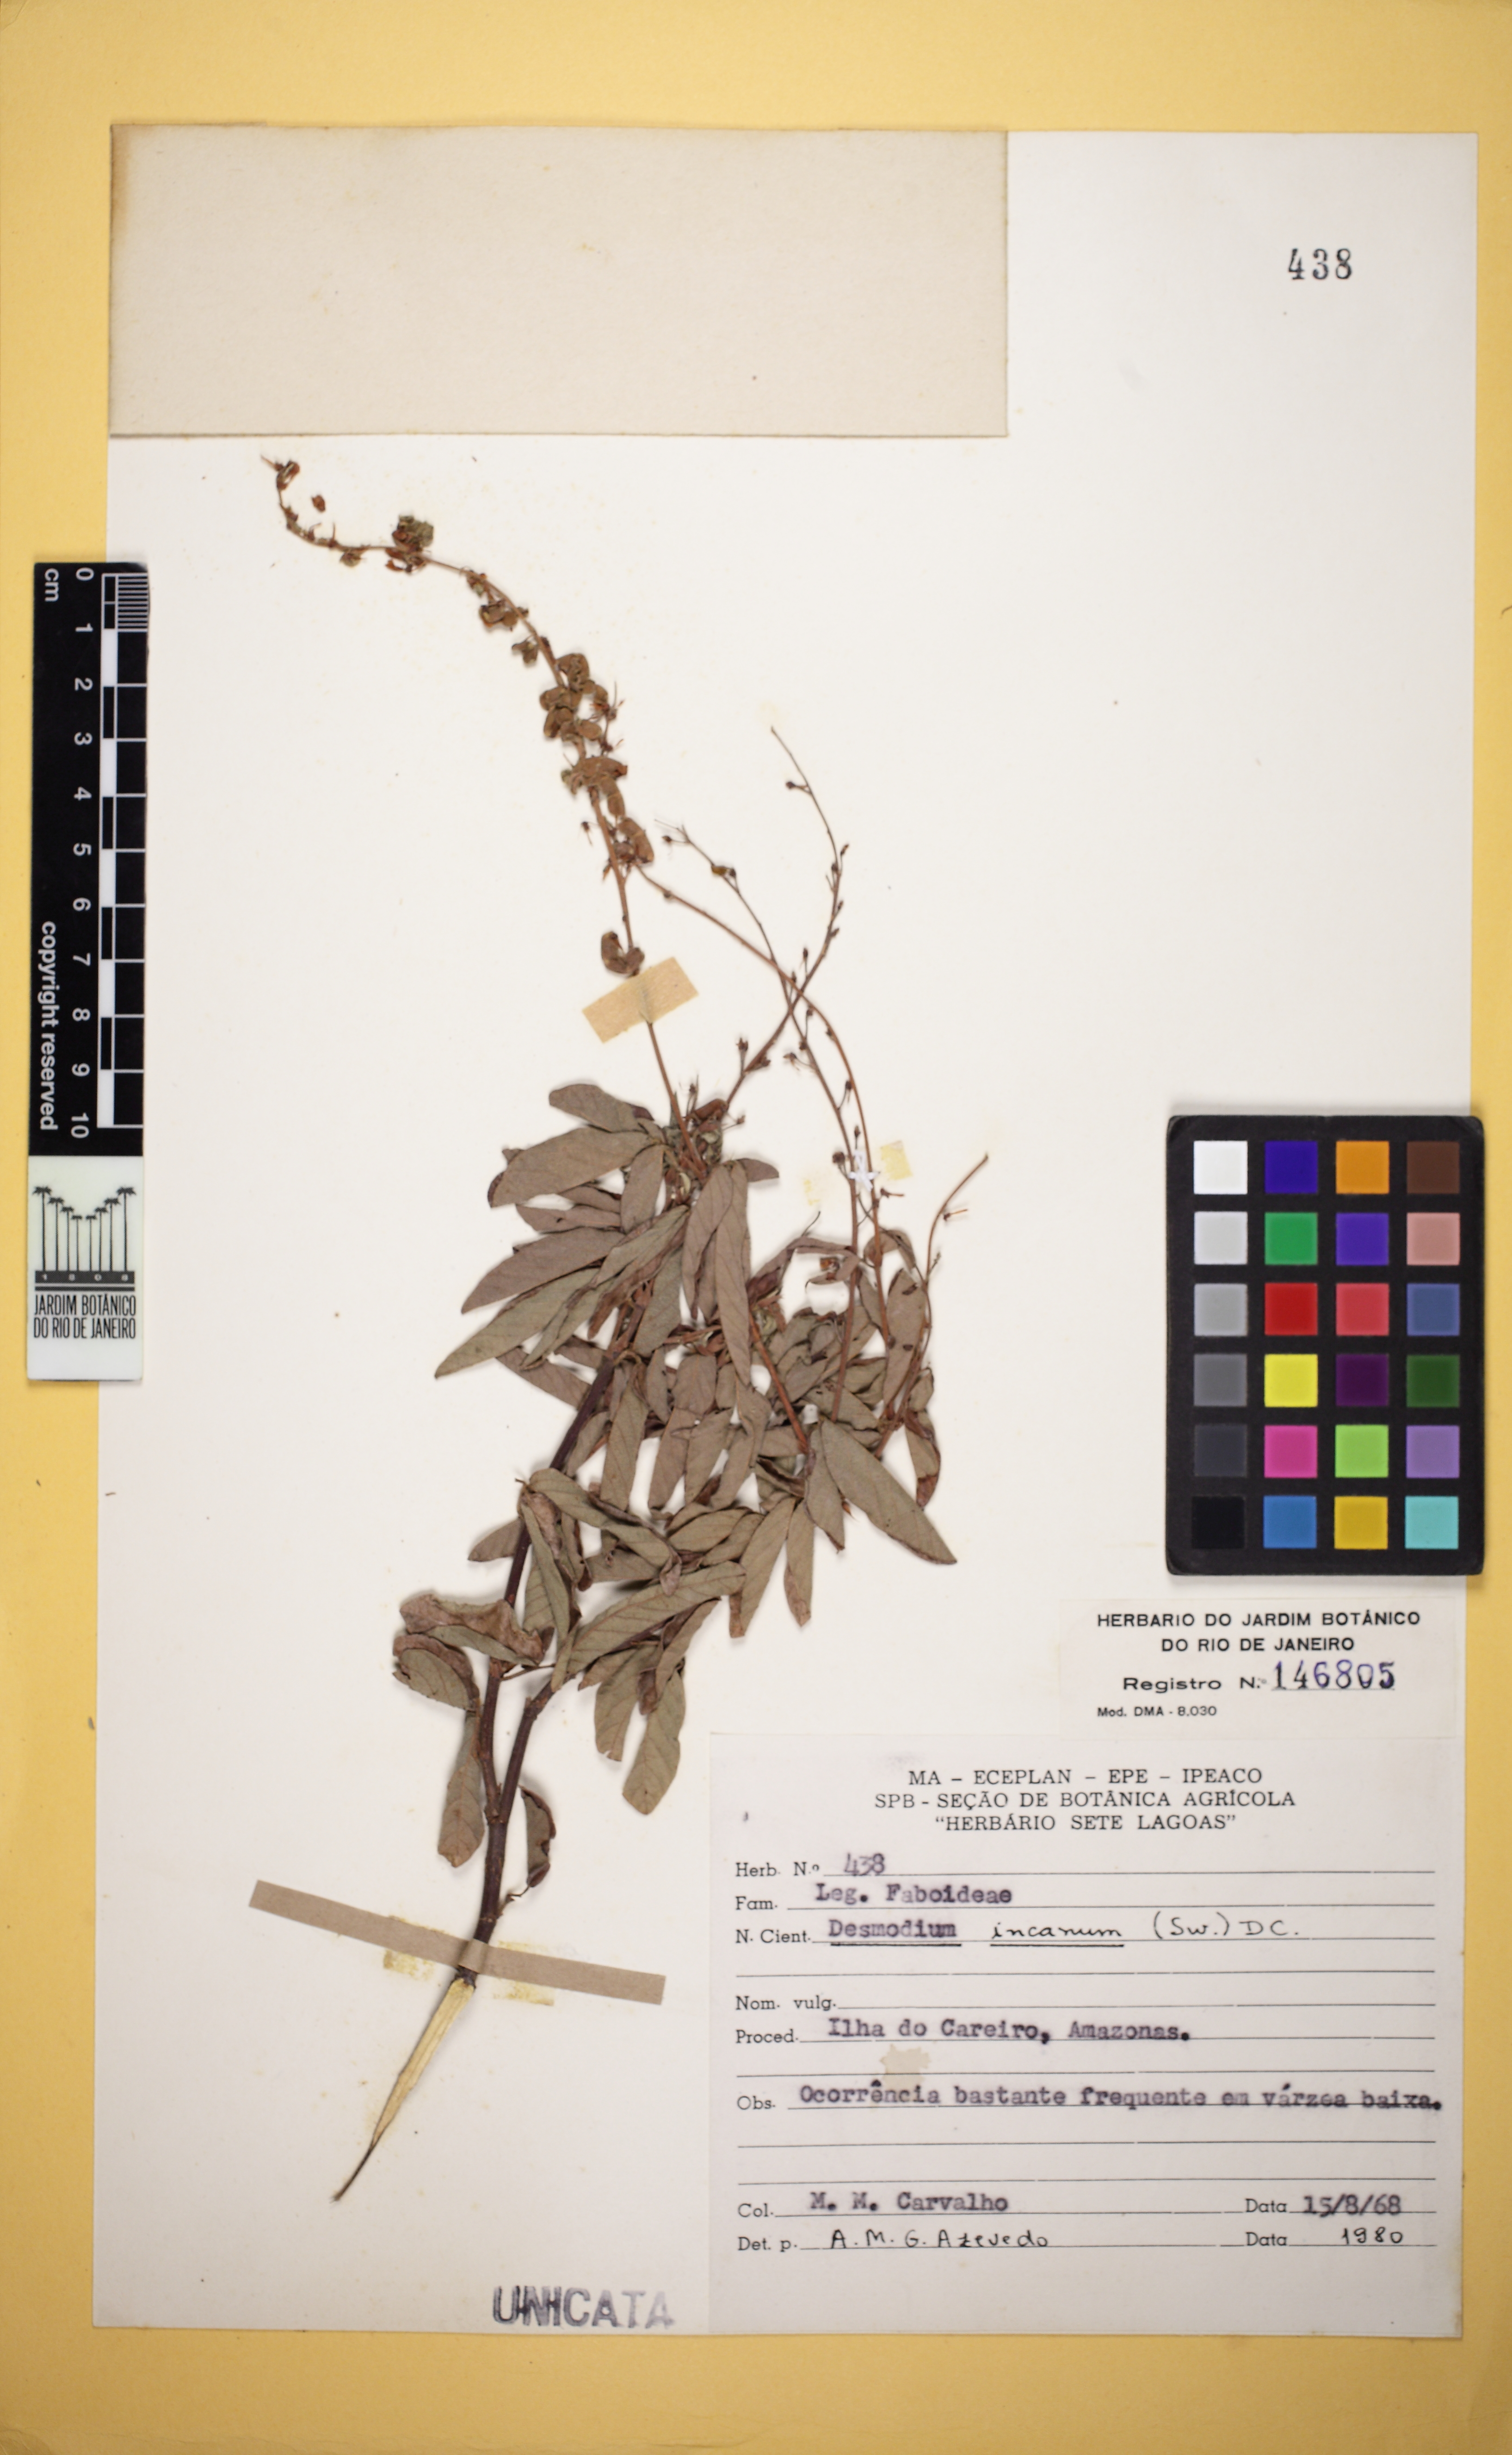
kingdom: Plantae
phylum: Tracheophyta
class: Magnoliopsida
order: Fabales
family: Fabaceae
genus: Desmodium
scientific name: Desmodium incanum
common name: Tickclover
